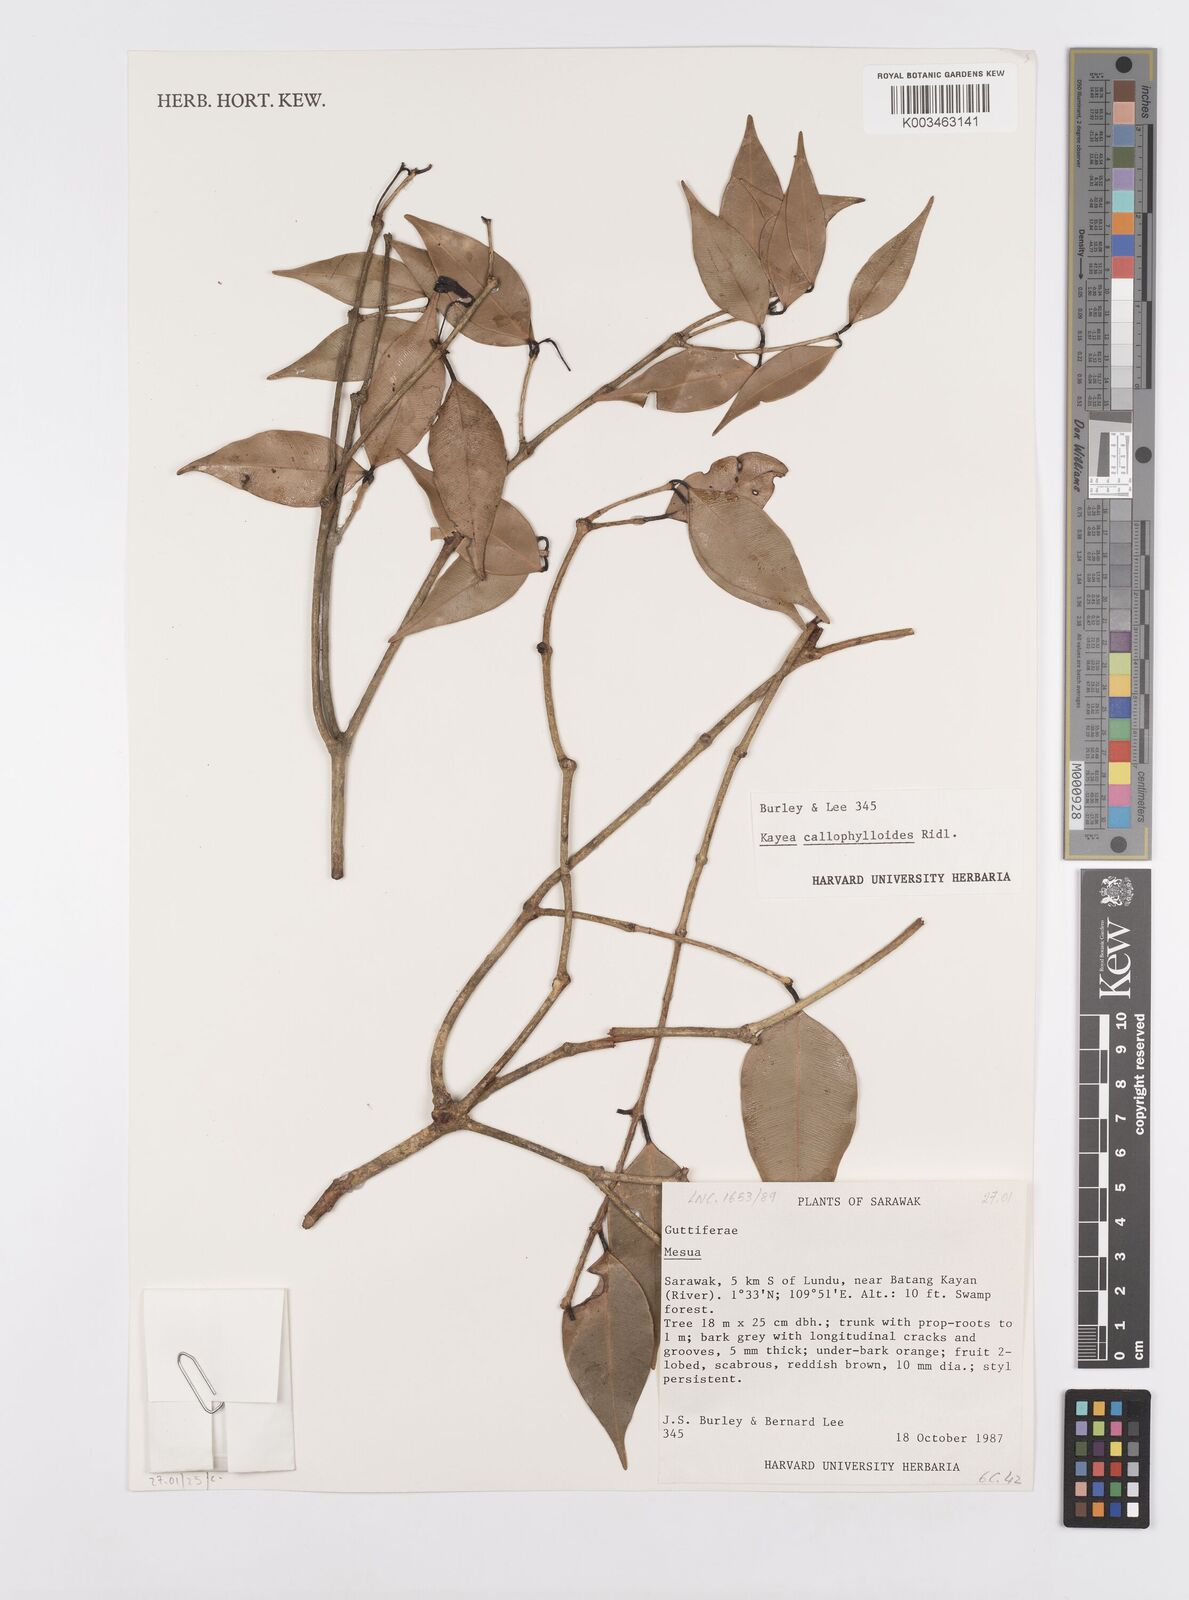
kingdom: Plantae
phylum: Tracheophyta
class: Magnoliopsida
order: Malpighiales
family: Calophyllaceae
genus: Kayea
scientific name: Kayea calophylloides
